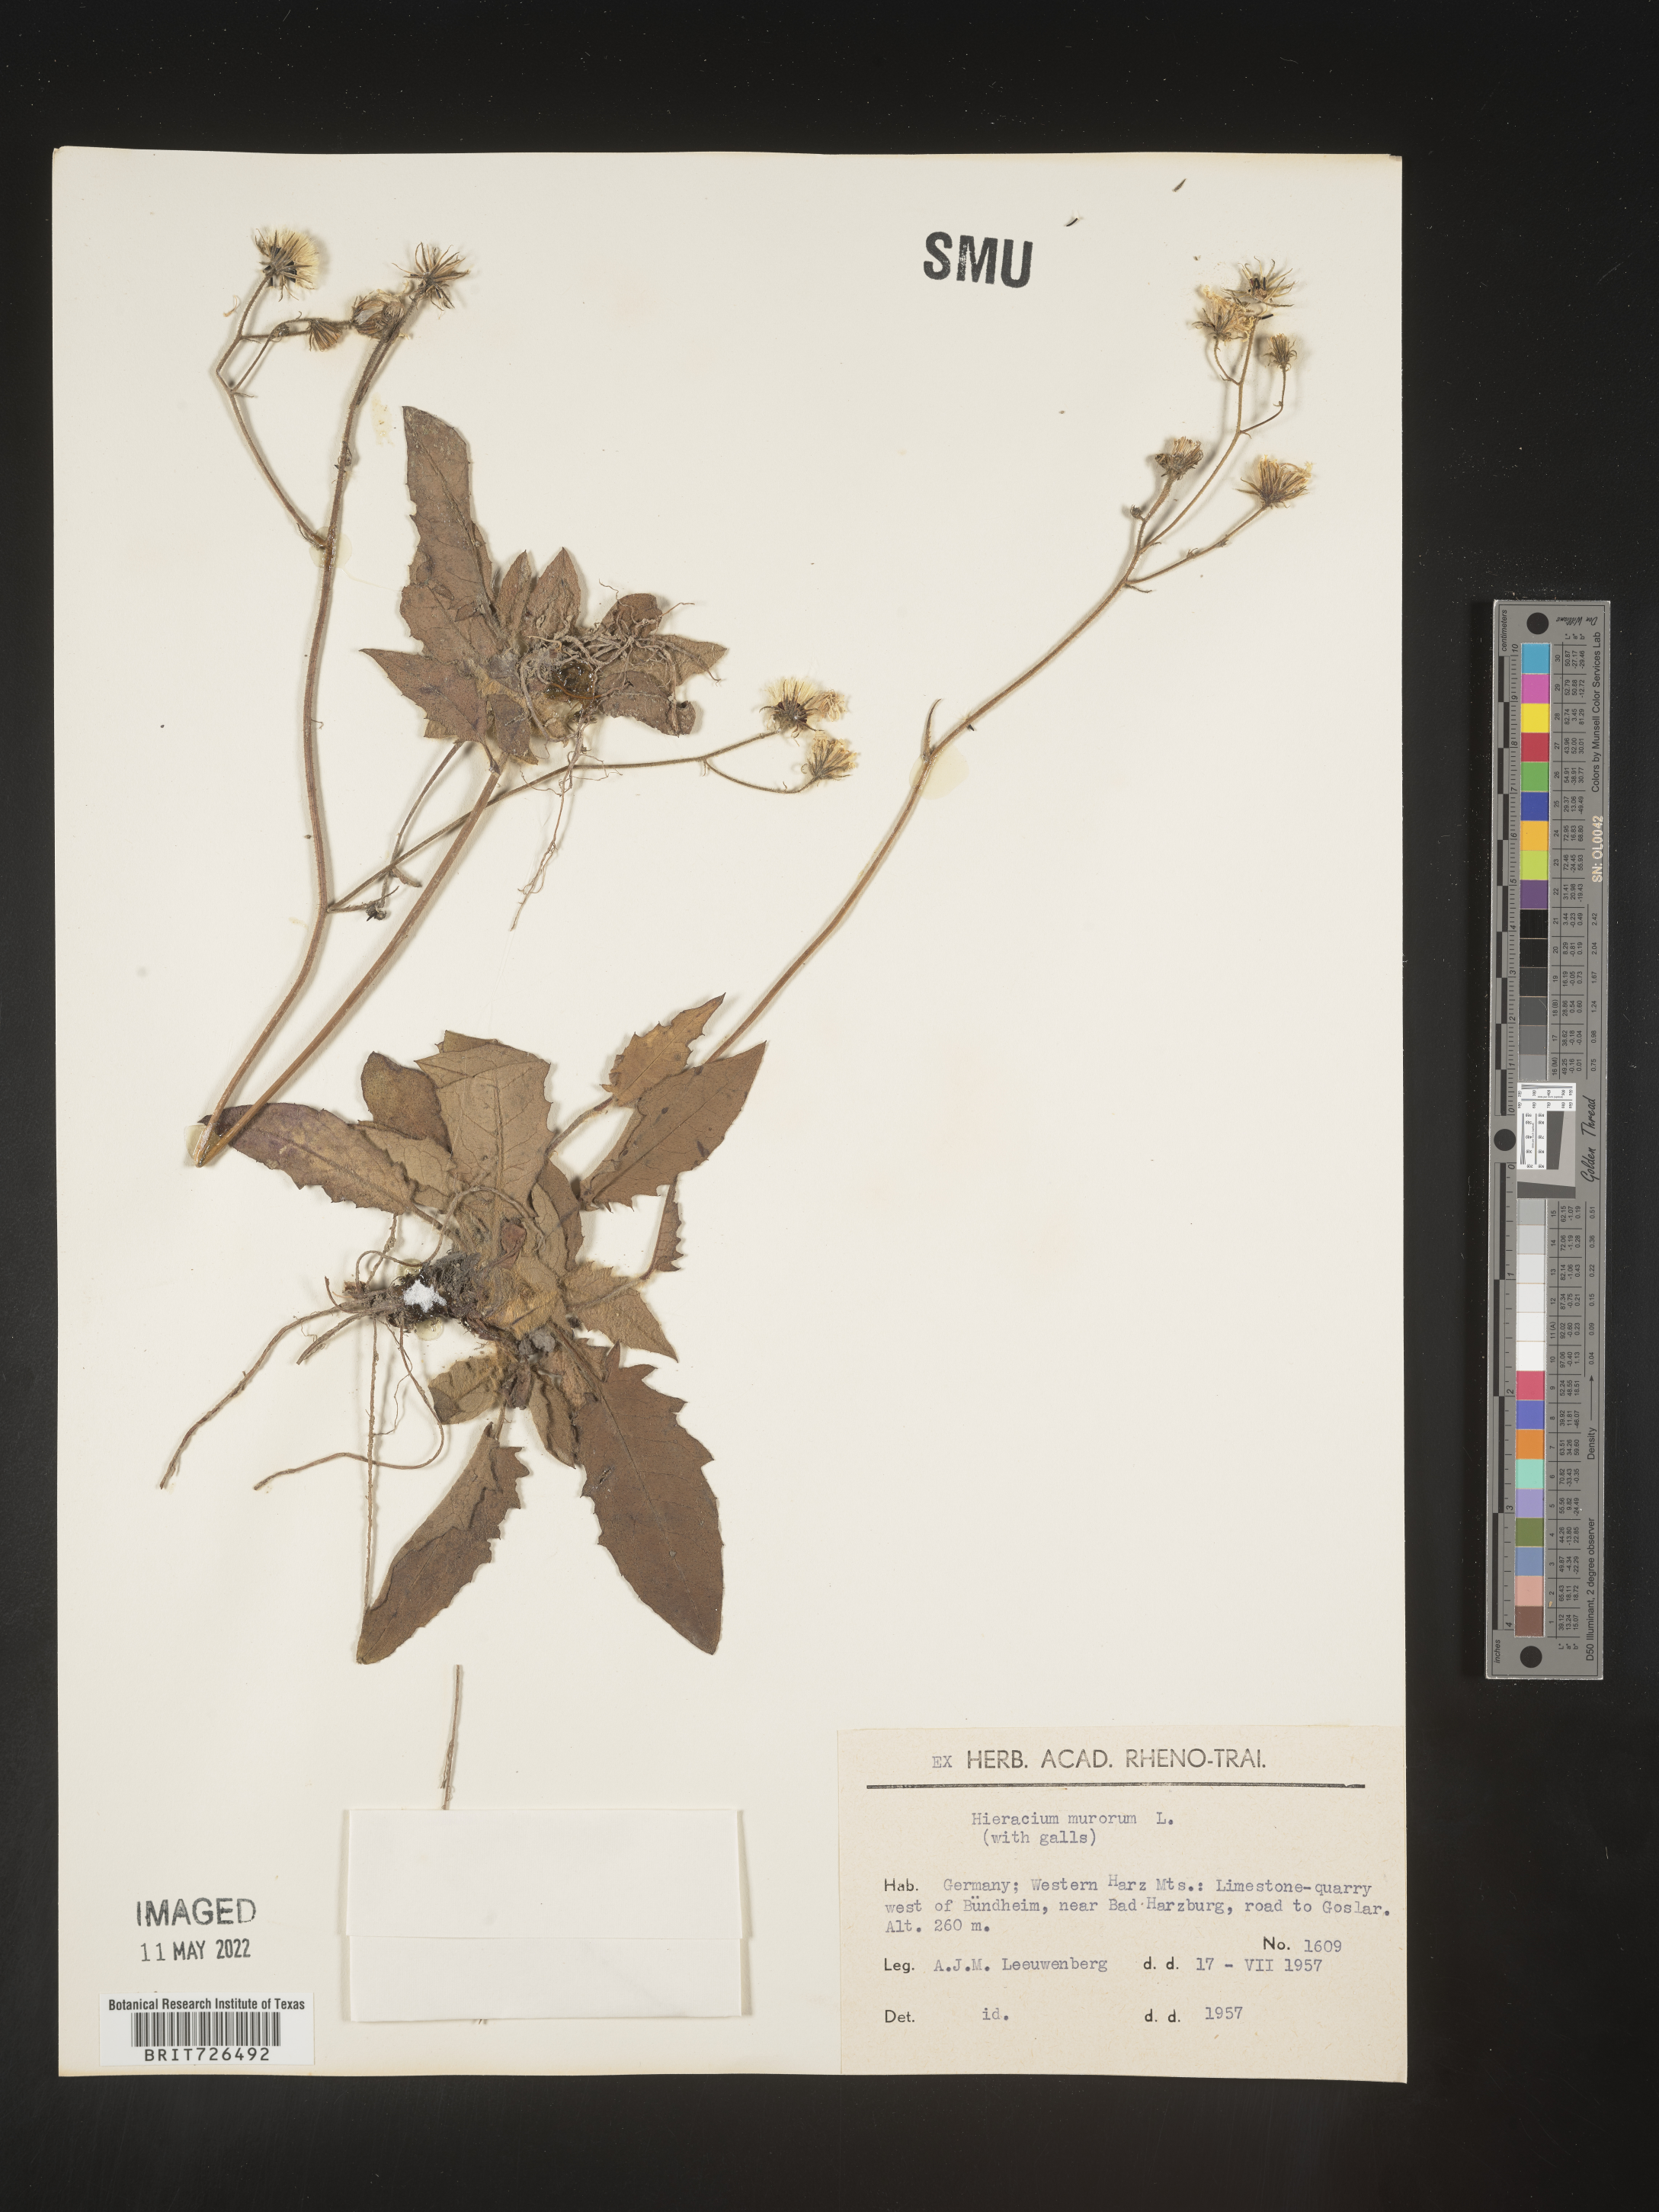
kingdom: Plantae
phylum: Tracheophyta
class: Magnoliopsida
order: Asterales
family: Asteraceae
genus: Hieracium
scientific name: Hieracium
